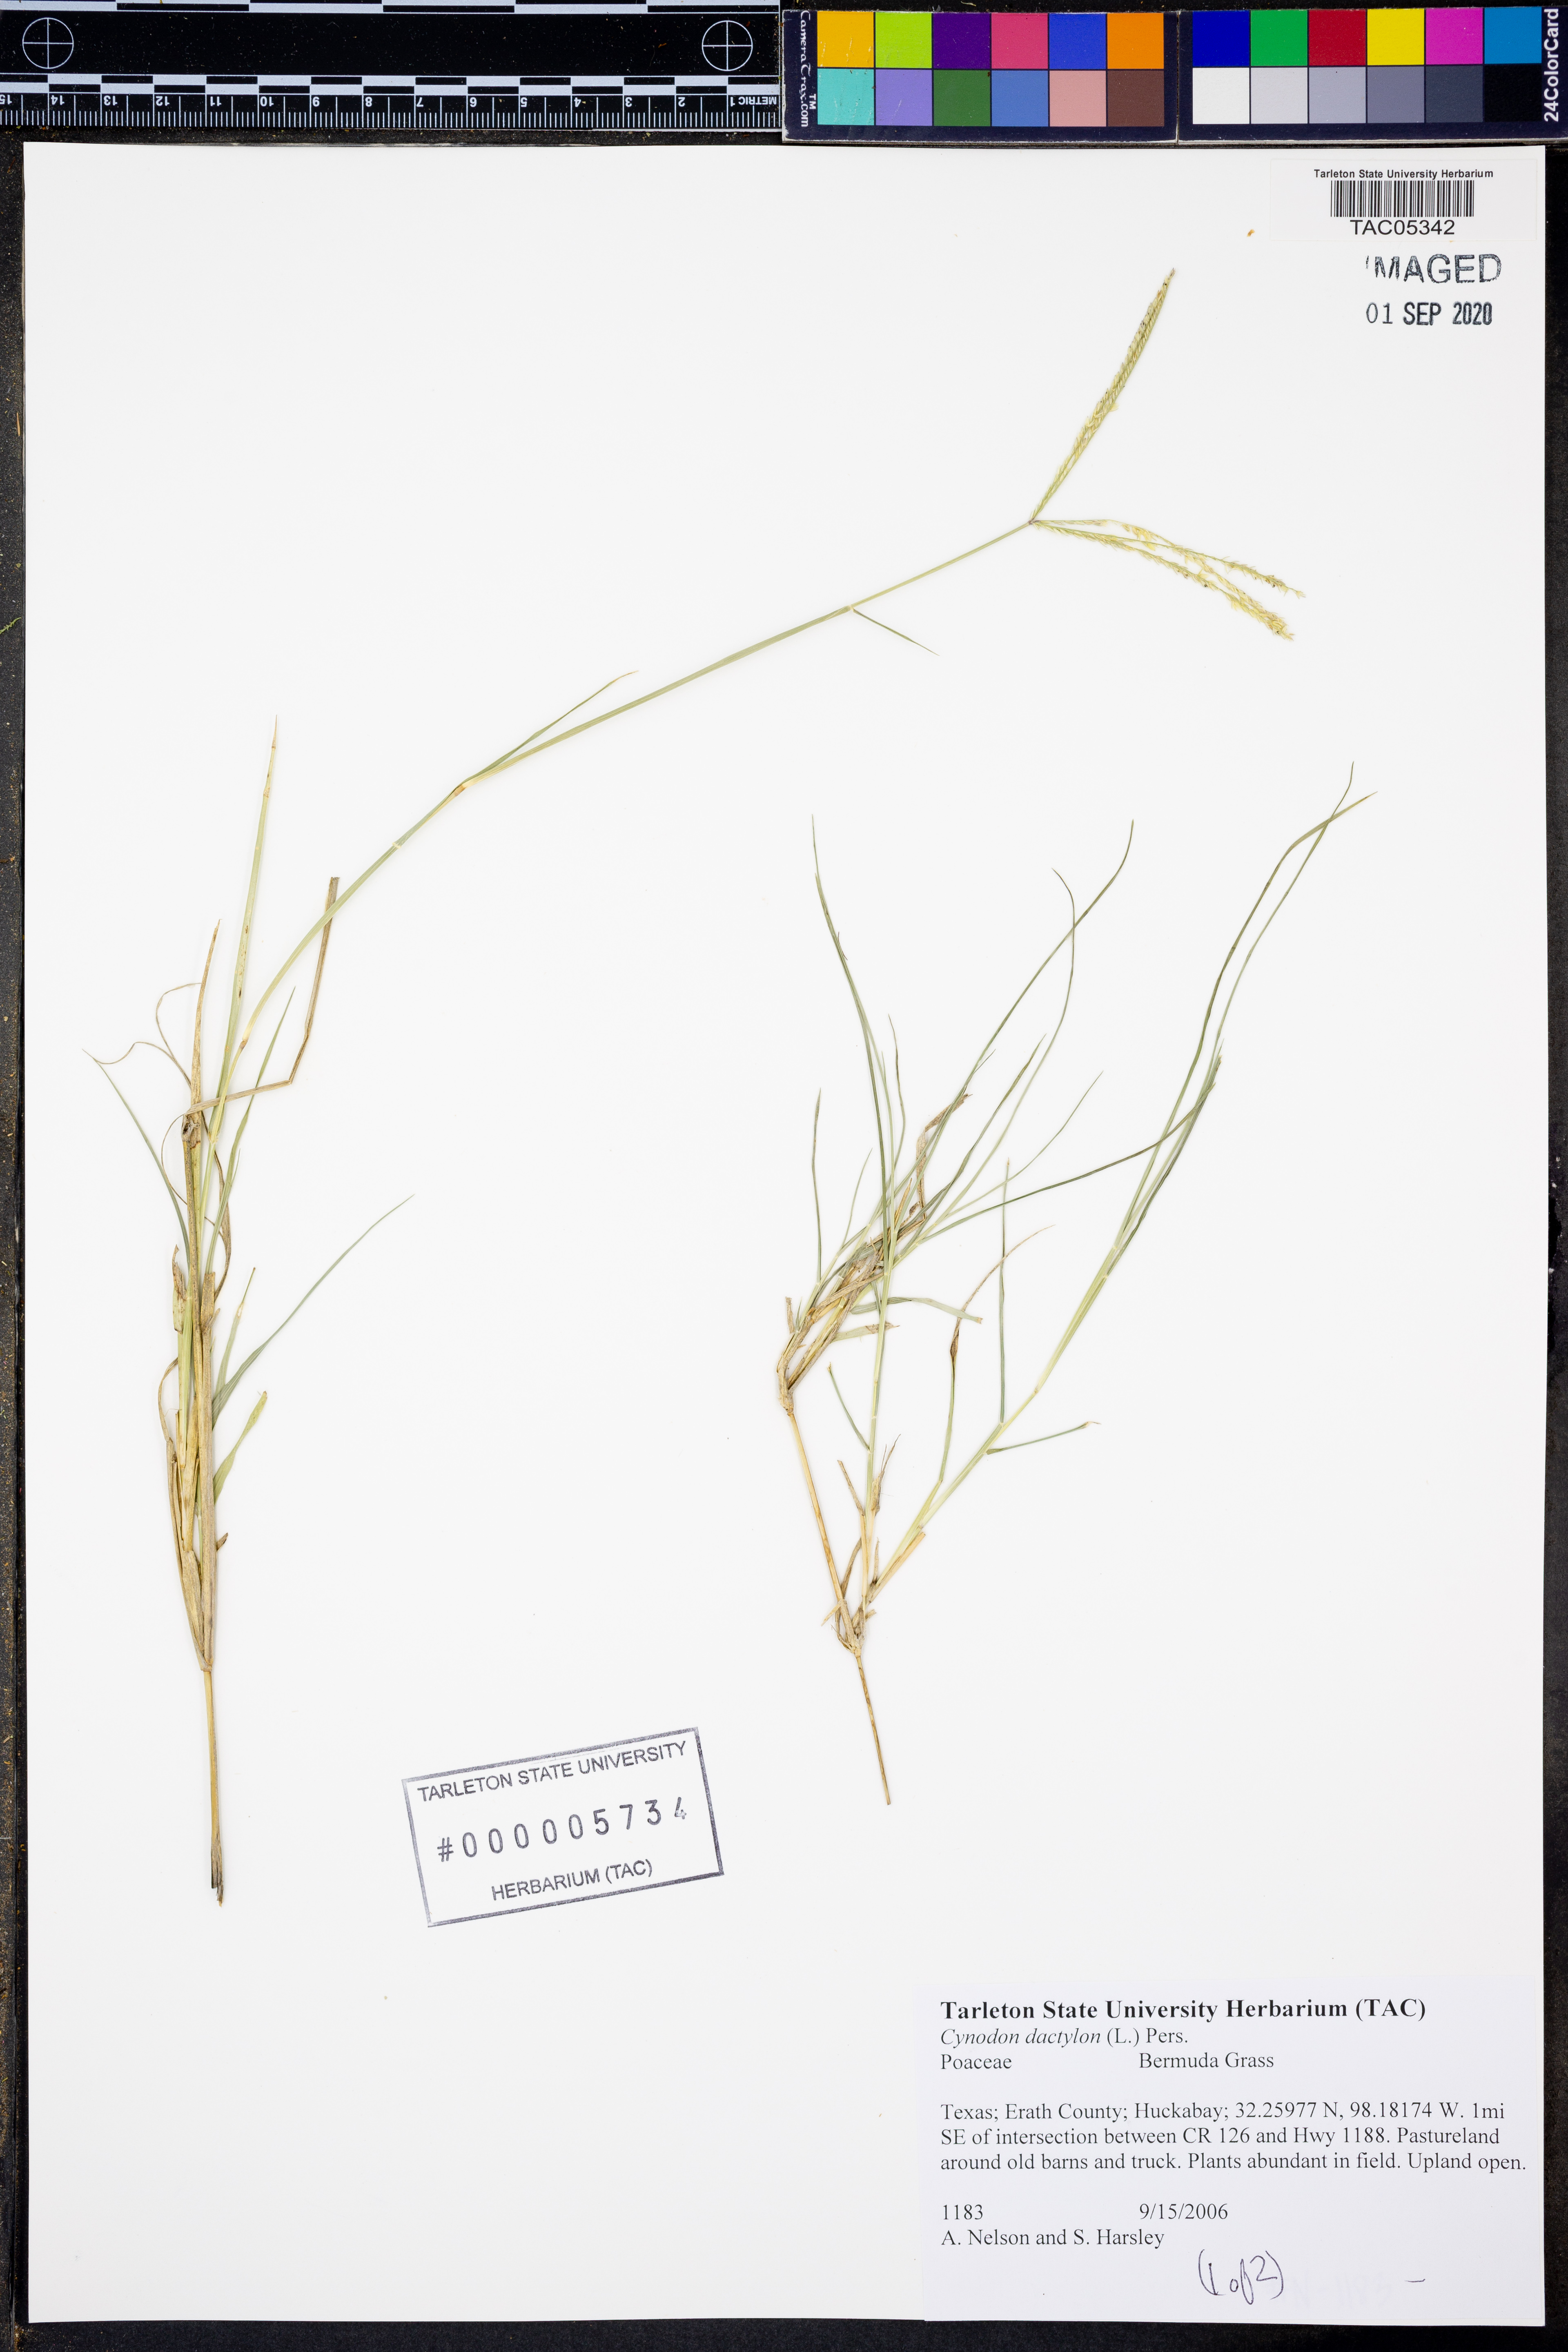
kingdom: Plantae
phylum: Tracheophyta
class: Liliopsida
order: Poales
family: Poaceae
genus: Cynodon
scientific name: Cynodon dactylon
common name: Bermuda grass
